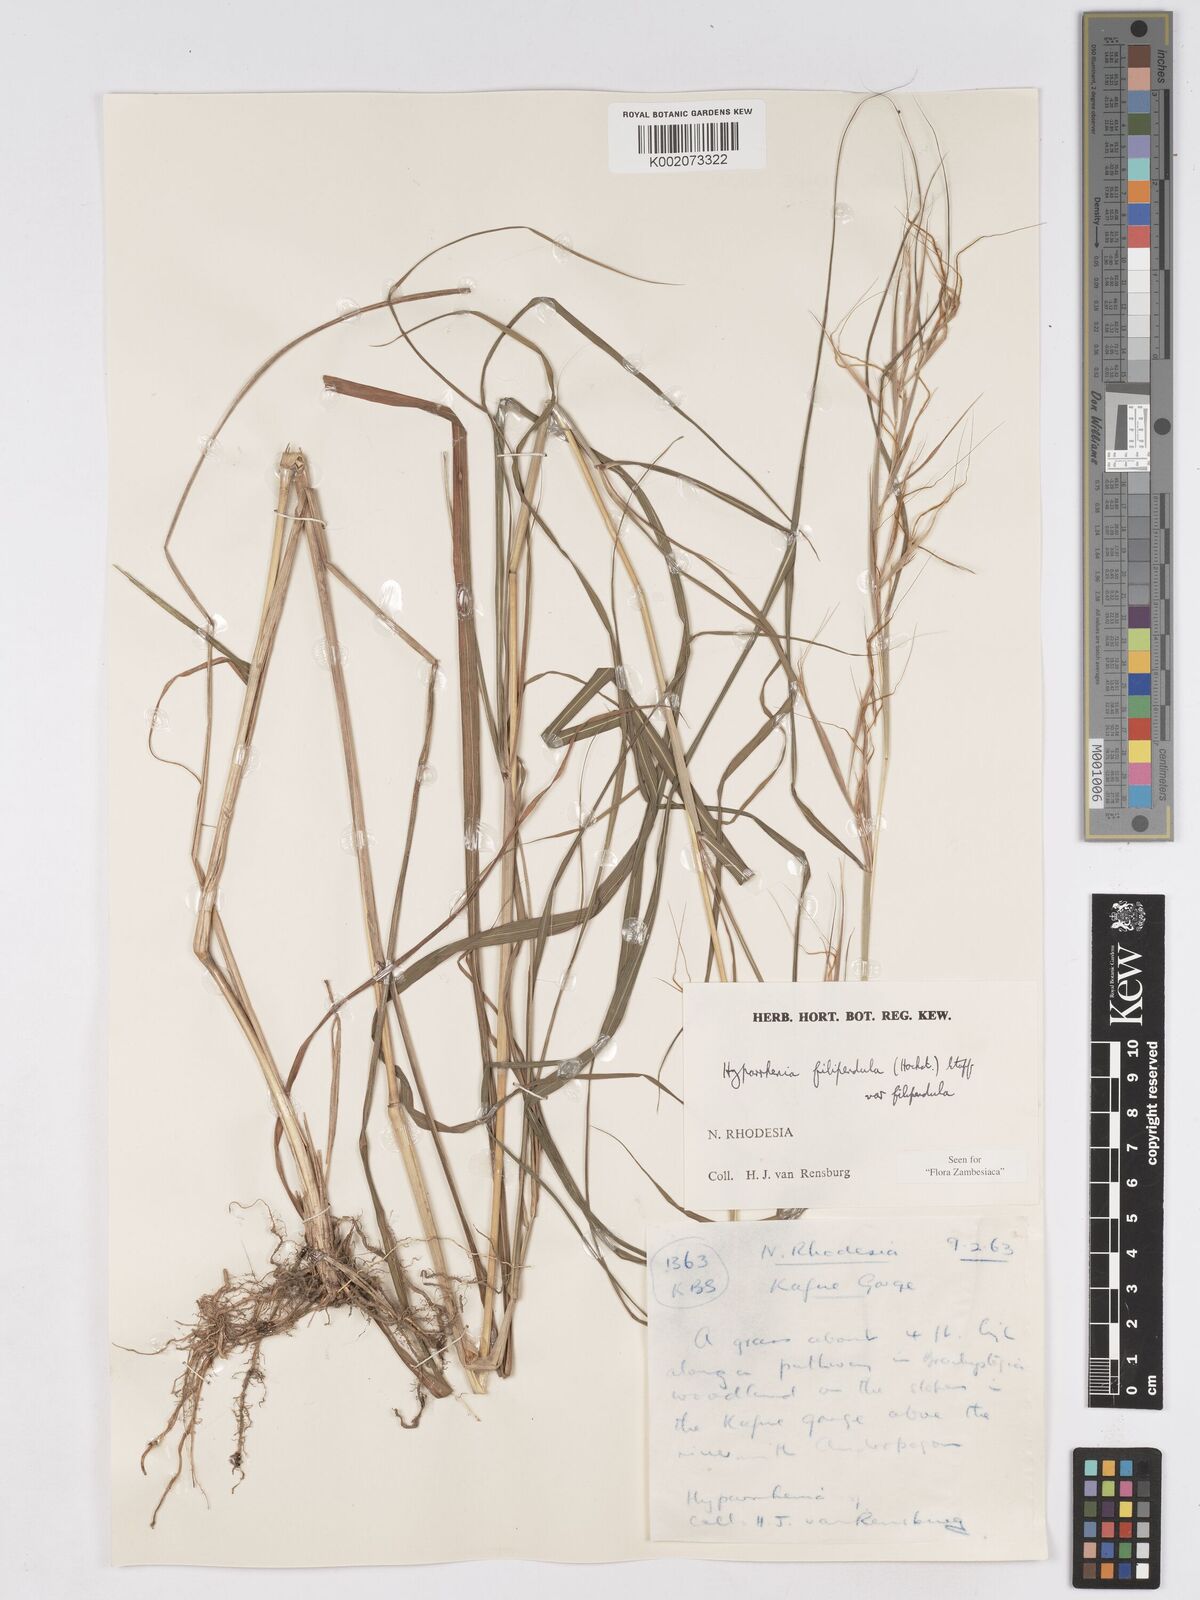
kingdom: Plantae
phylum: Tracheophyta
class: Liliopsida
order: Poales
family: Poaceae
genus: Hyparrhenia
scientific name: Hyparrhenia filipendula
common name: Tambookie grass
